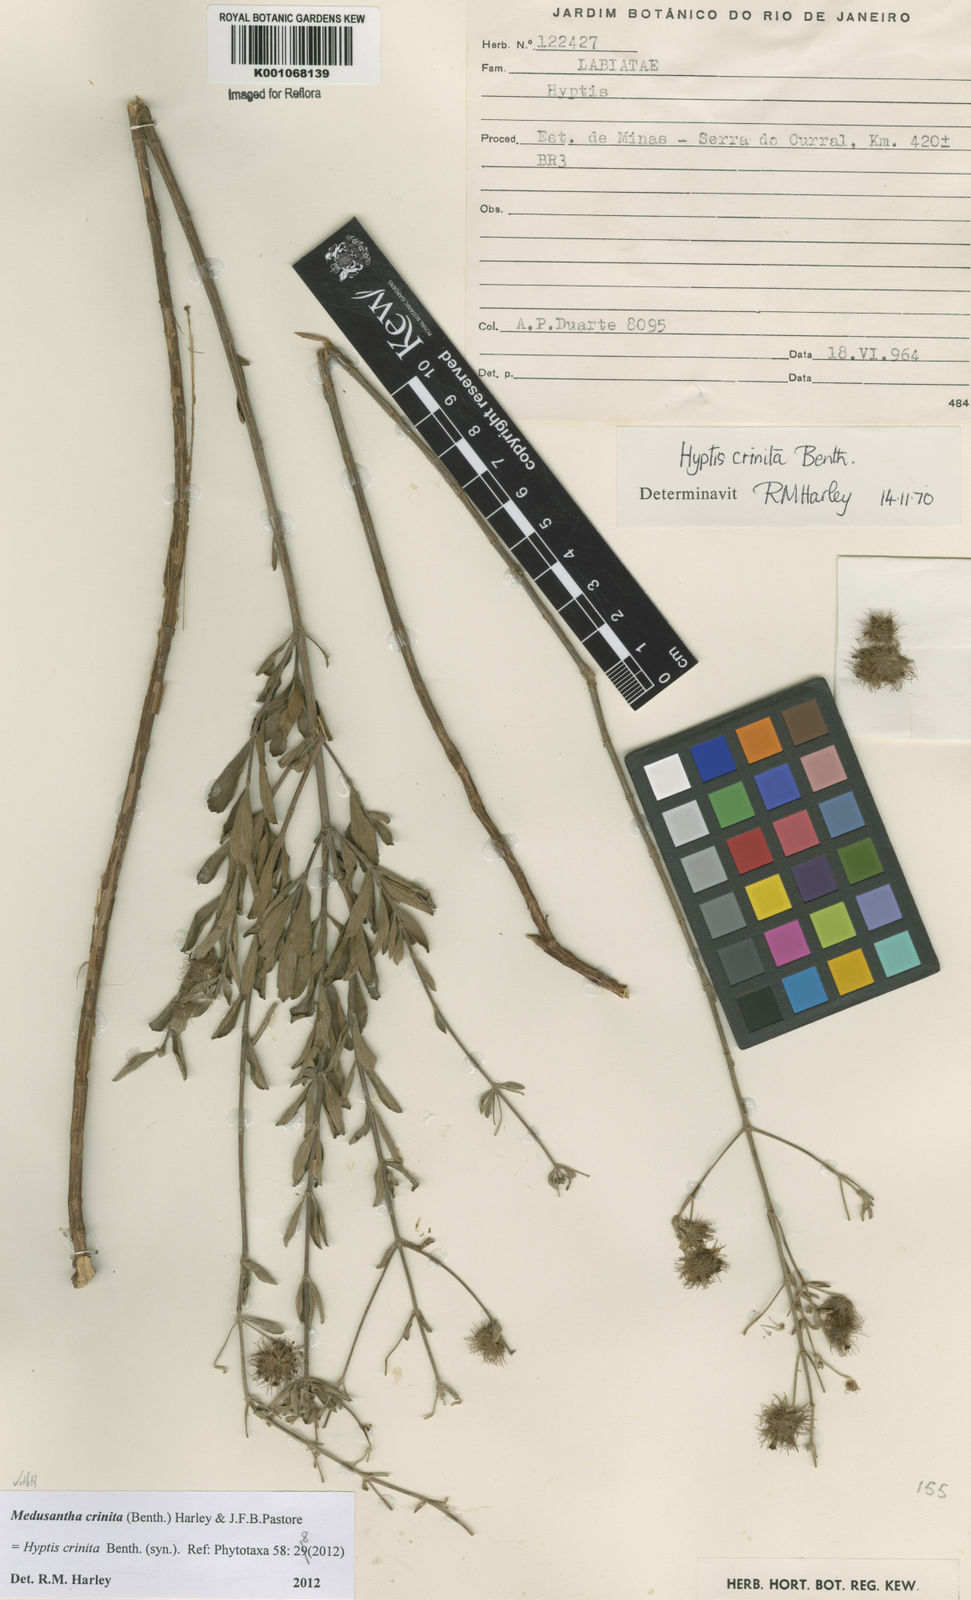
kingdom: Plantae
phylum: Tracheophyta
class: Magnoliopsida
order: Lamiales
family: Lamiaceae
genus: Medusantha
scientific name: Medusantha crinita
